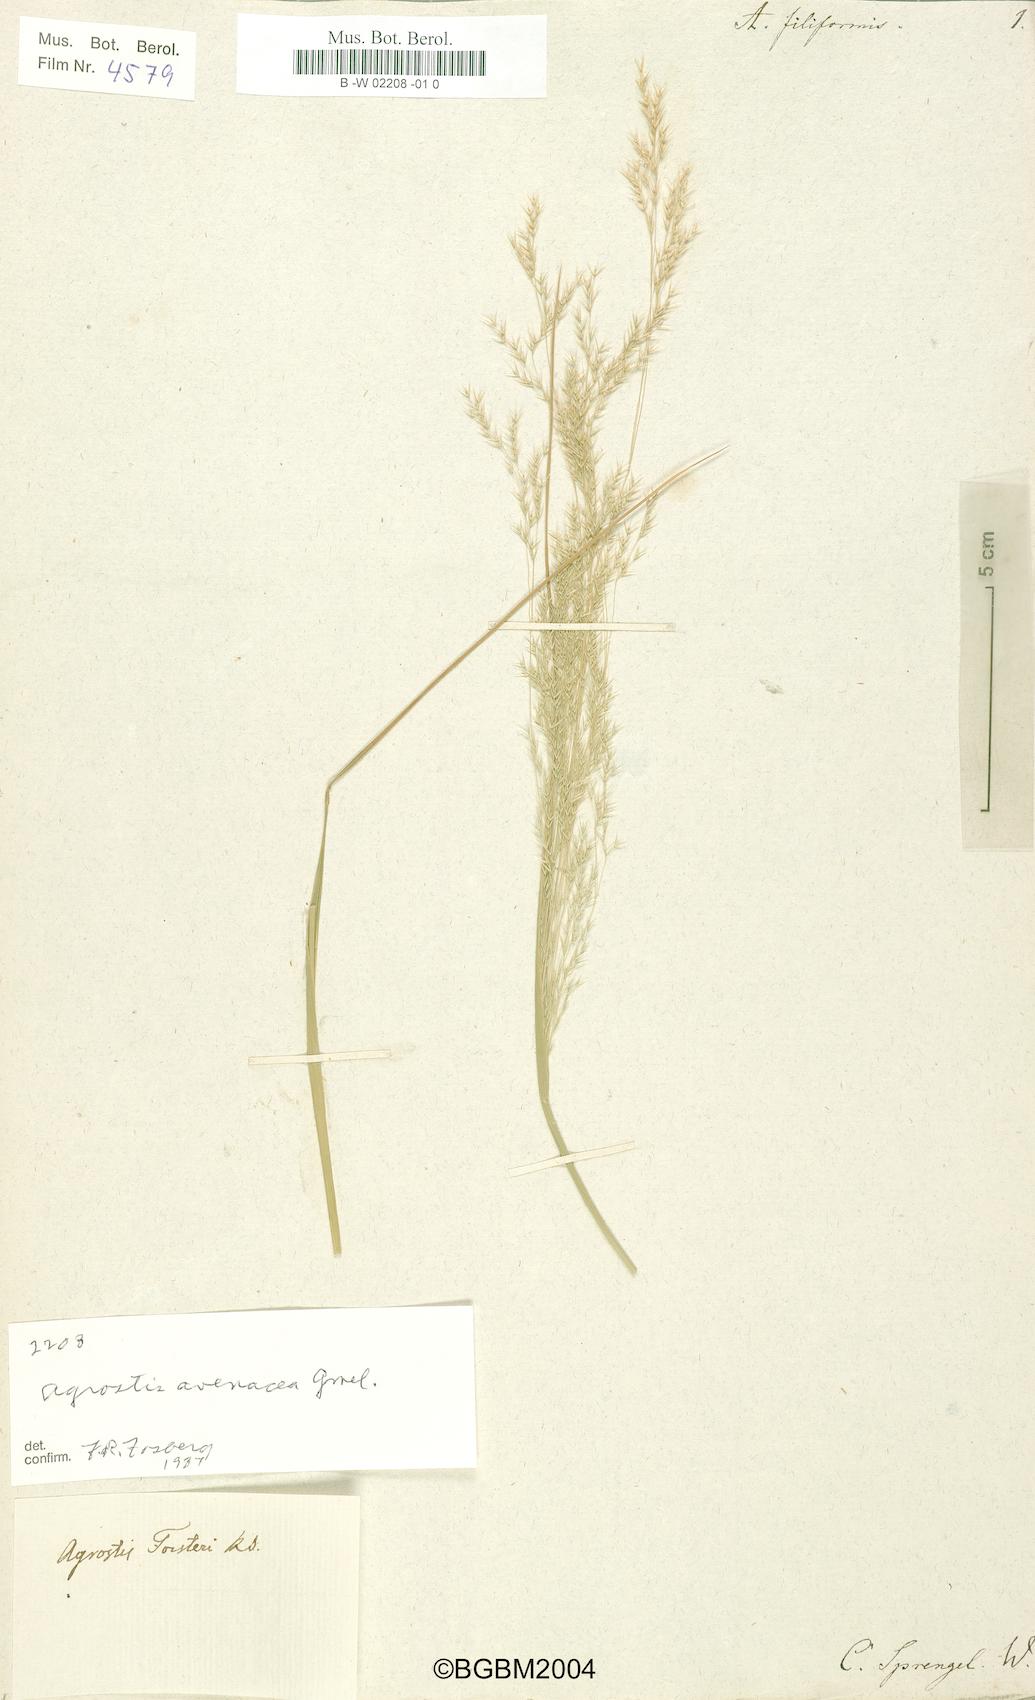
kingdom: Plantae
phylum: Tracheophyta
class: Liliopsida
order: Poales
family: Poaceae
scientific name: Poaceae
